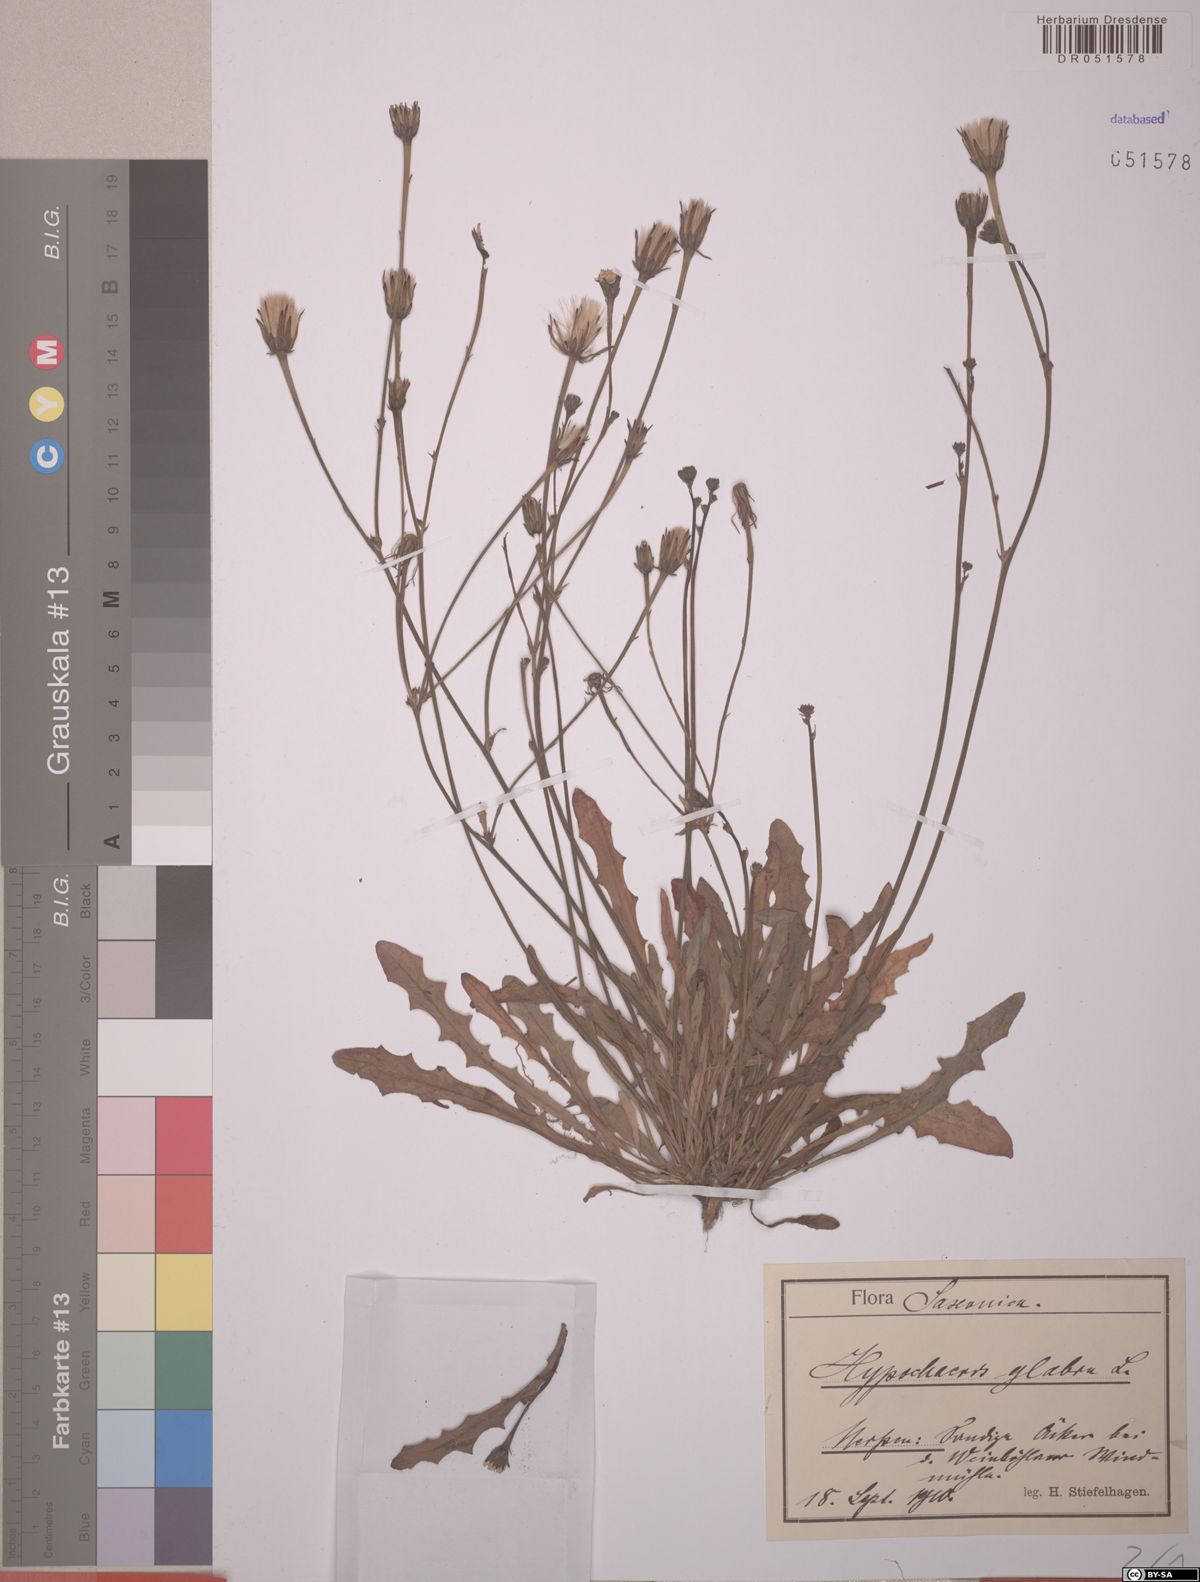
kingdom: Plantae
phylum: Tracheophyta
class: Magnoliopsida
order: Asterales
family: Asteraceae
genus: Hypochaeris
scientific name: Hypochaeris glabra
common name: Smooth catsear
